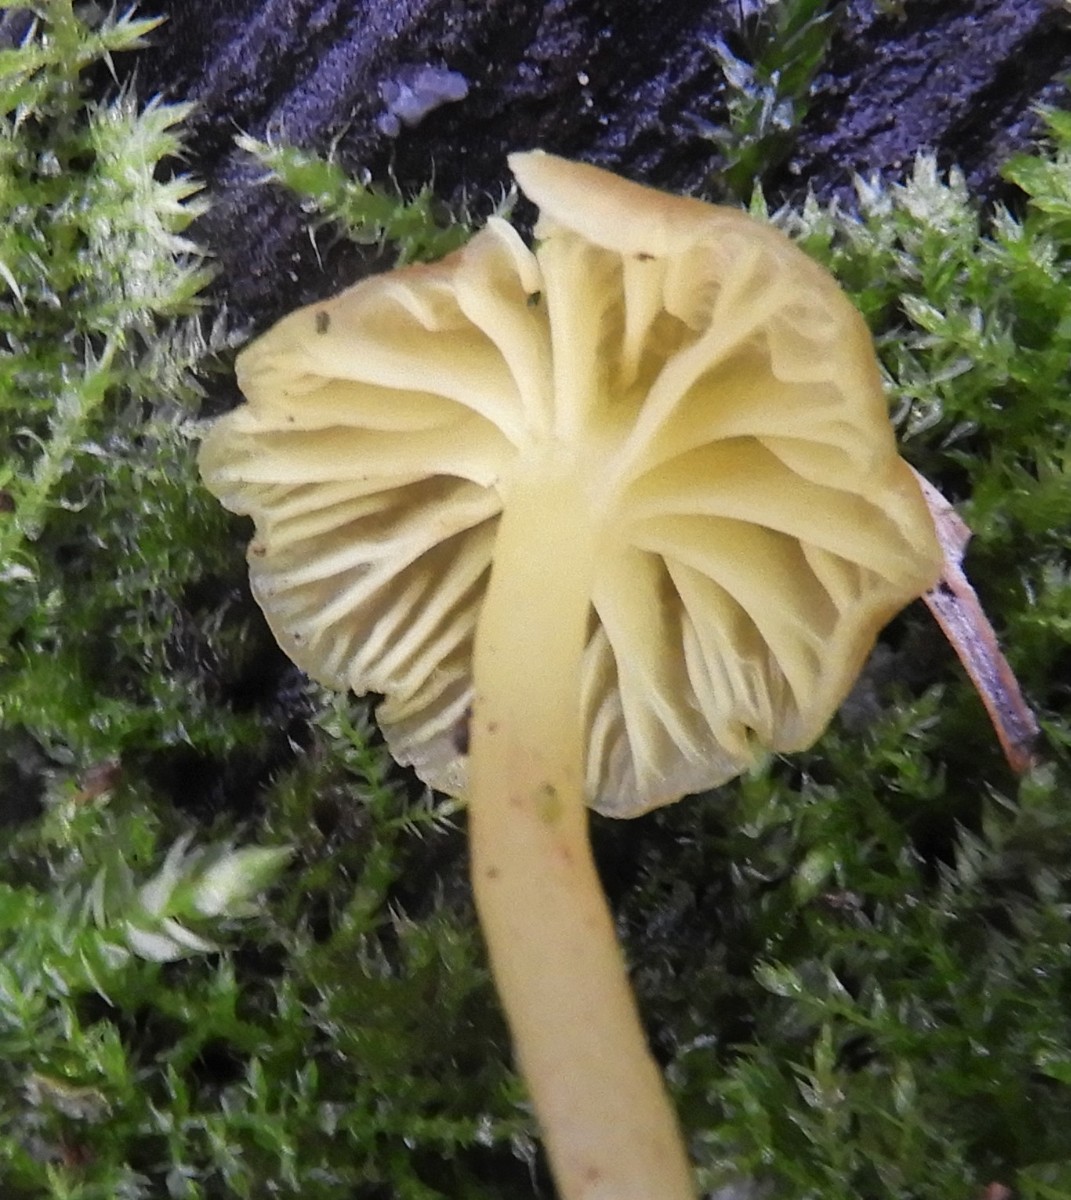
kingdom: Fungi
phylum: Basidiomycota
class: Agaricomycetes
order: Agaricales
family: Hygrophoraceae
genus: Chrysomphalina
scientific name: Chrysomphalina grossula
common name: stød-gyldenblad
